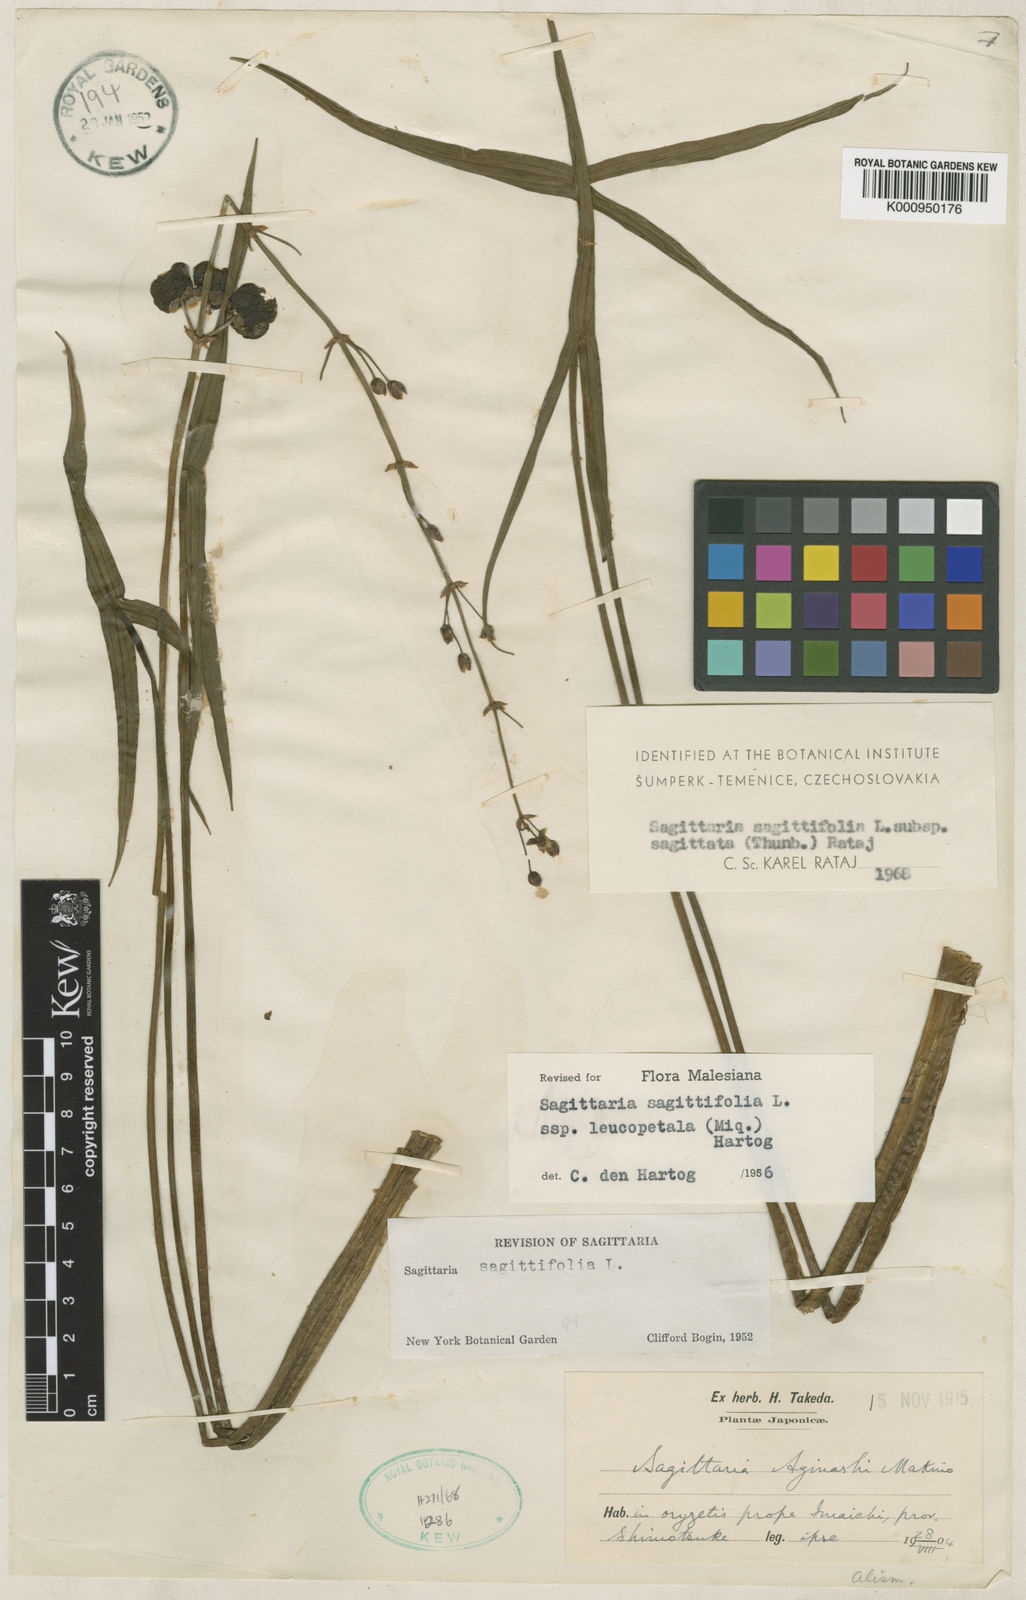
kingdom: Plantae
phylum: Tracheophyta
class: Liliopsida
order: Alismatales
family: Alismataceae
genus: Sagittaria
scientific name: Sagittaria aginashi
